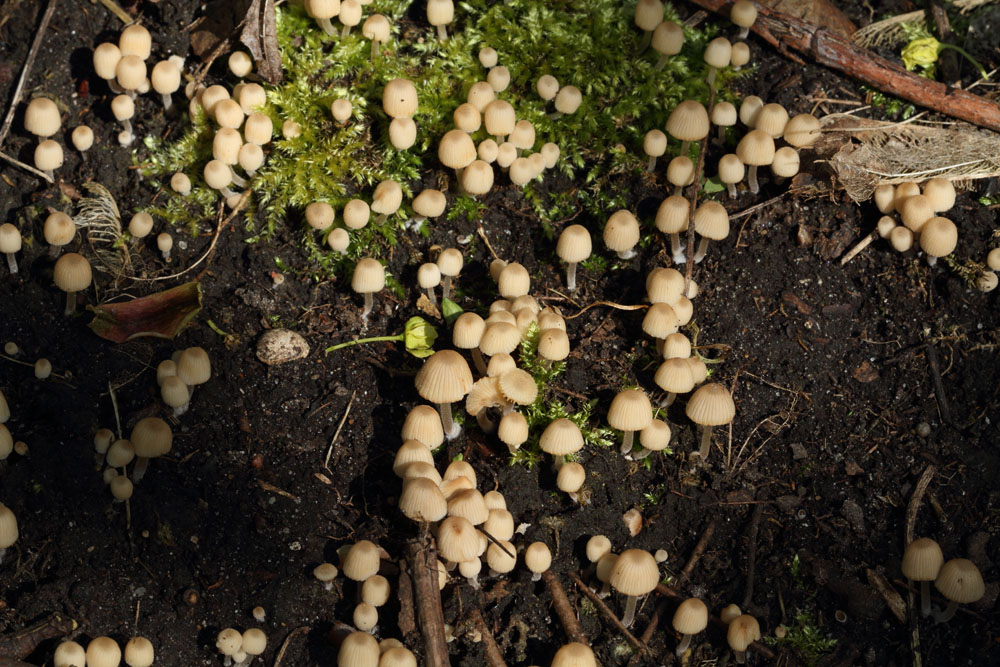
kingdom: Fungi
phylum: Basidiomycota
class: Agaricomycetes
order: Agaricales
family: Psathyrellaceae
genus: Coprinellus
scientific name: Coprinellus disseminatus
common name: bredsået blækhat
